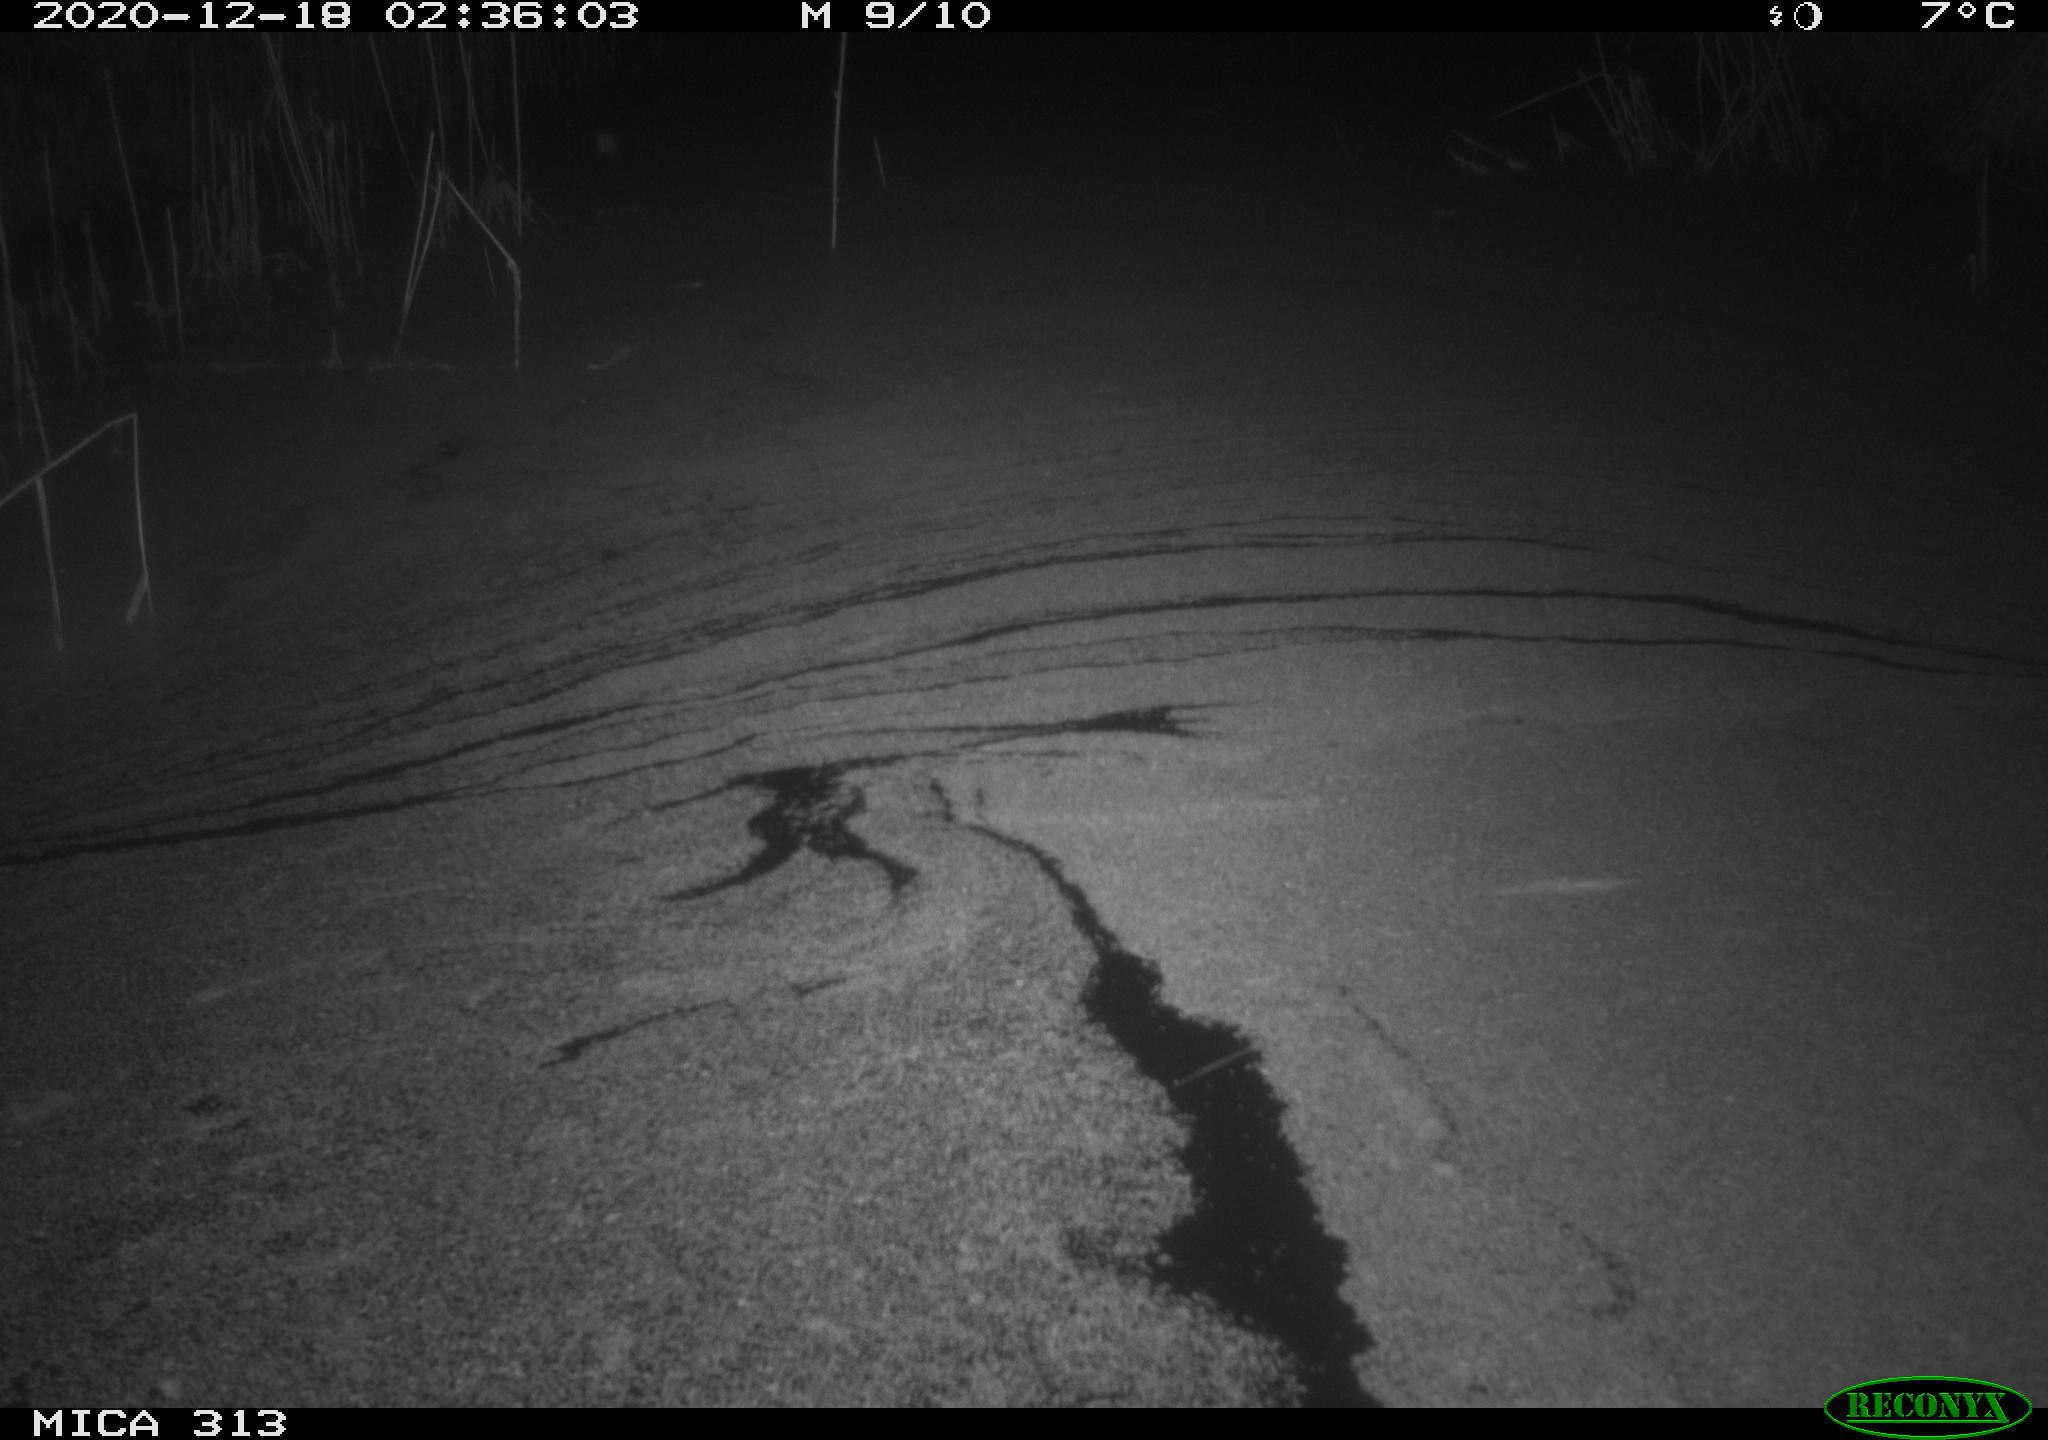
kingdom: Animalia
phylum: Chordata
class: Mammalia
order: Rodentia
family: Muridae
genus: Rattus
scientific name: Rattus norvegicus
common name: Brown rat
